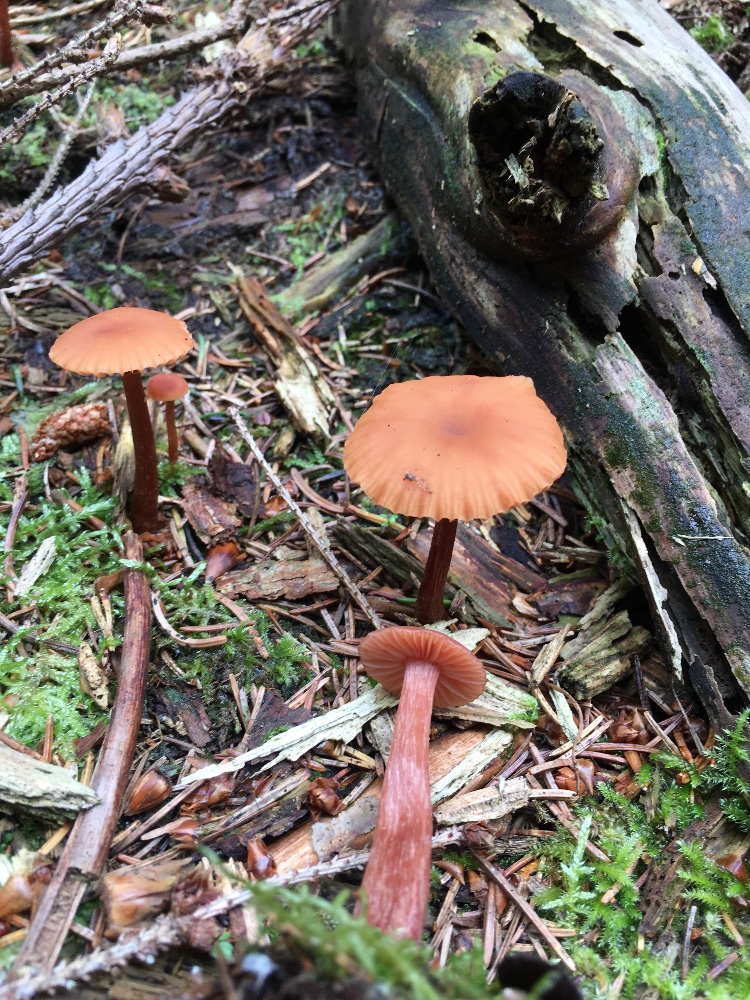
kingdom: Fungi
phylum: Basidiomycota
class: Agaricomycetes
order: Agaricales
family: Hydnangiaceae
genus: Laccaria
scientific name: Laccaria laccata
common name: rød ametysthat
